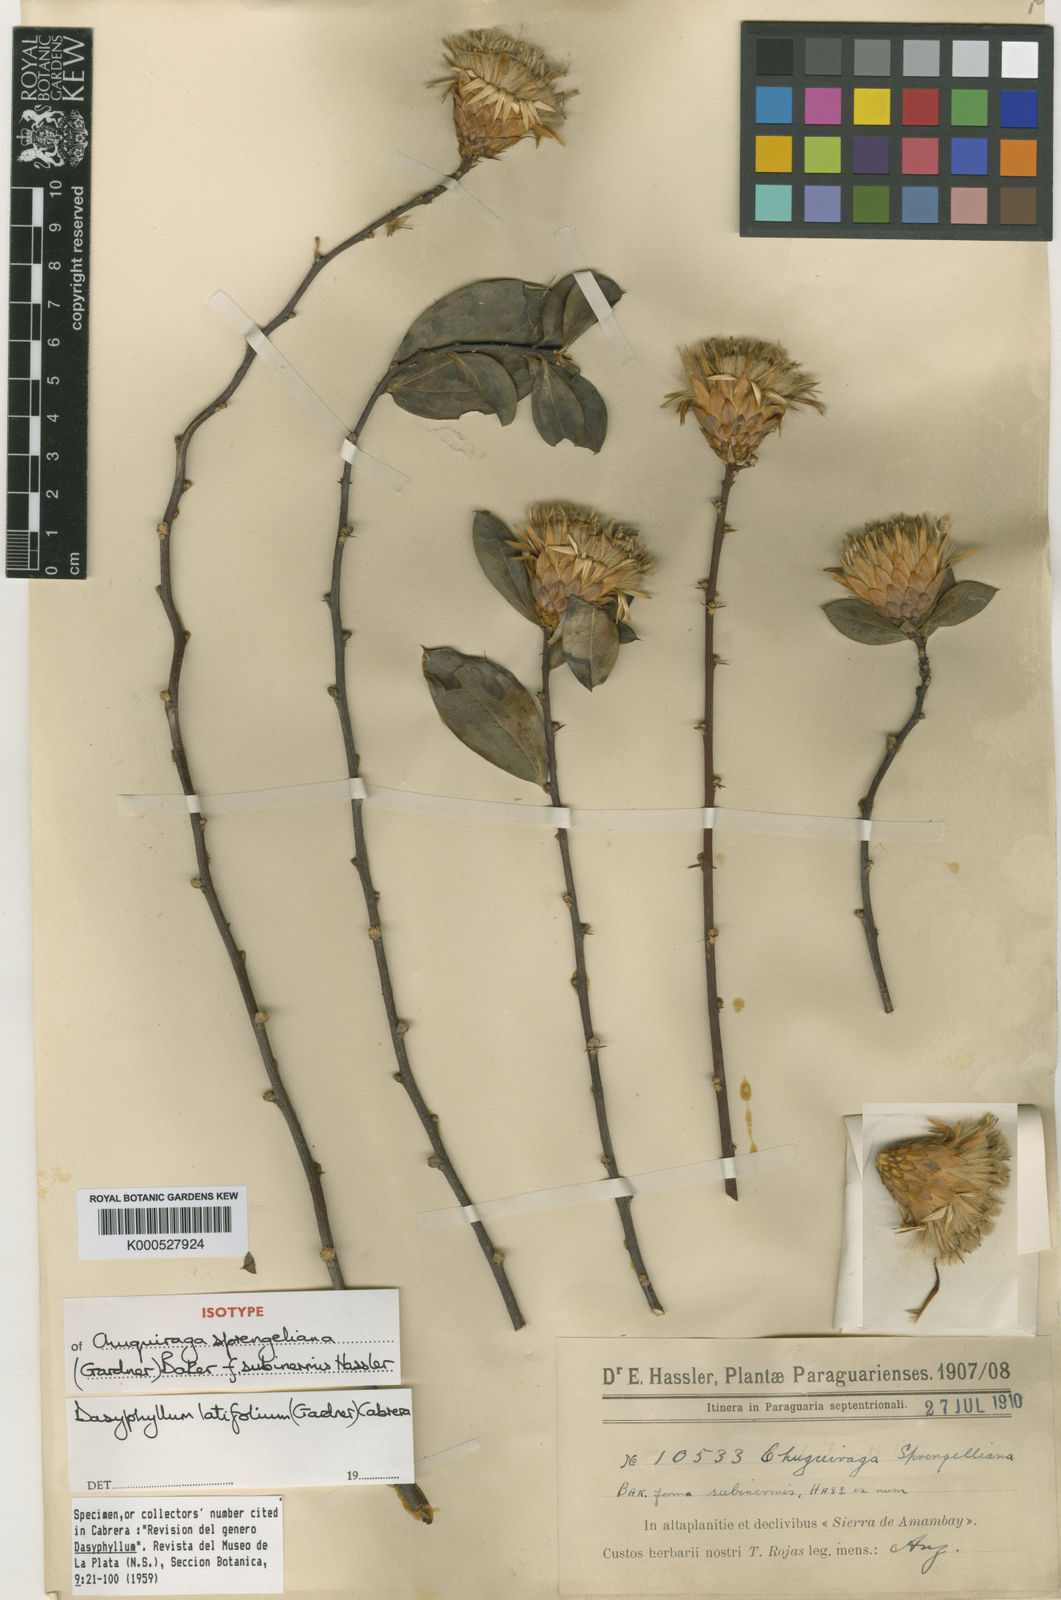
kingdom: Plantae
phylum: Tracheophyta
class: Magnoliopsida
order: Asterales
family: Asteraceae
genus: Dasyphyllum
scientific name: Dasyphyllum latifolium
